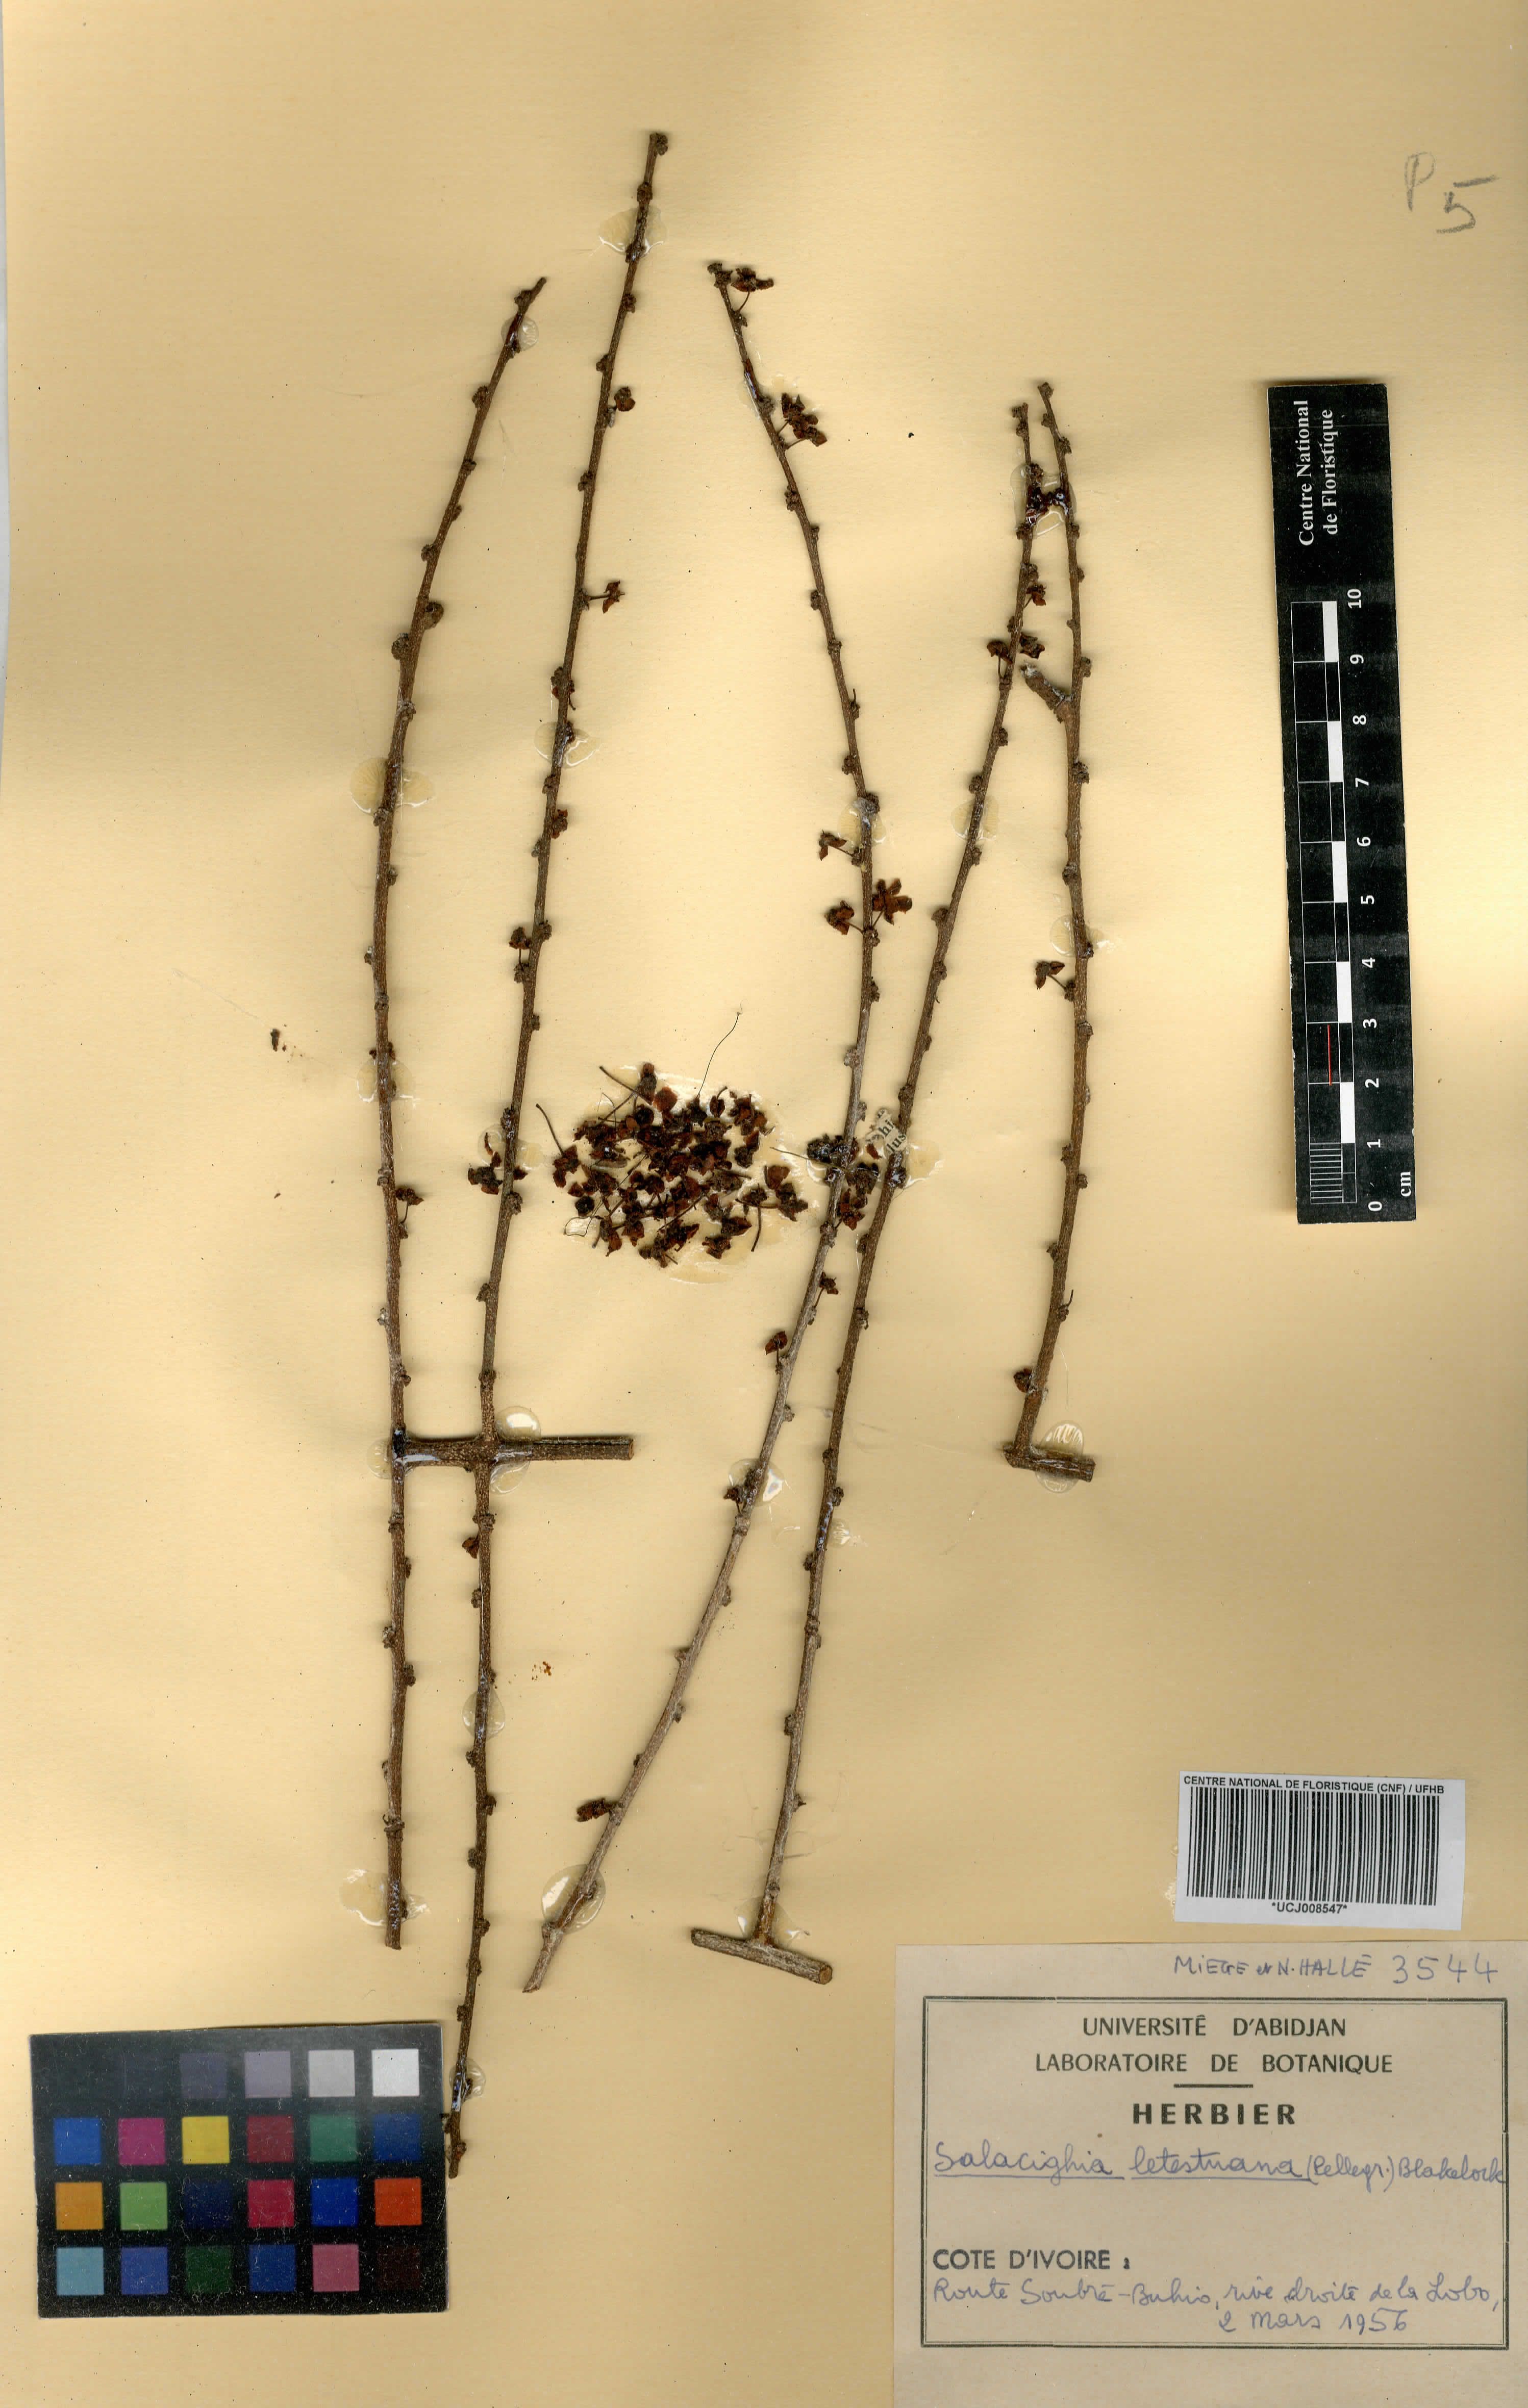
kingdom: Plantae
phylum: Tracheophyta
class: Magnoliopsida
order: Celastrales
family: Celastraceae
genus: Salacighia
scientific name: Salacighia letestuana
